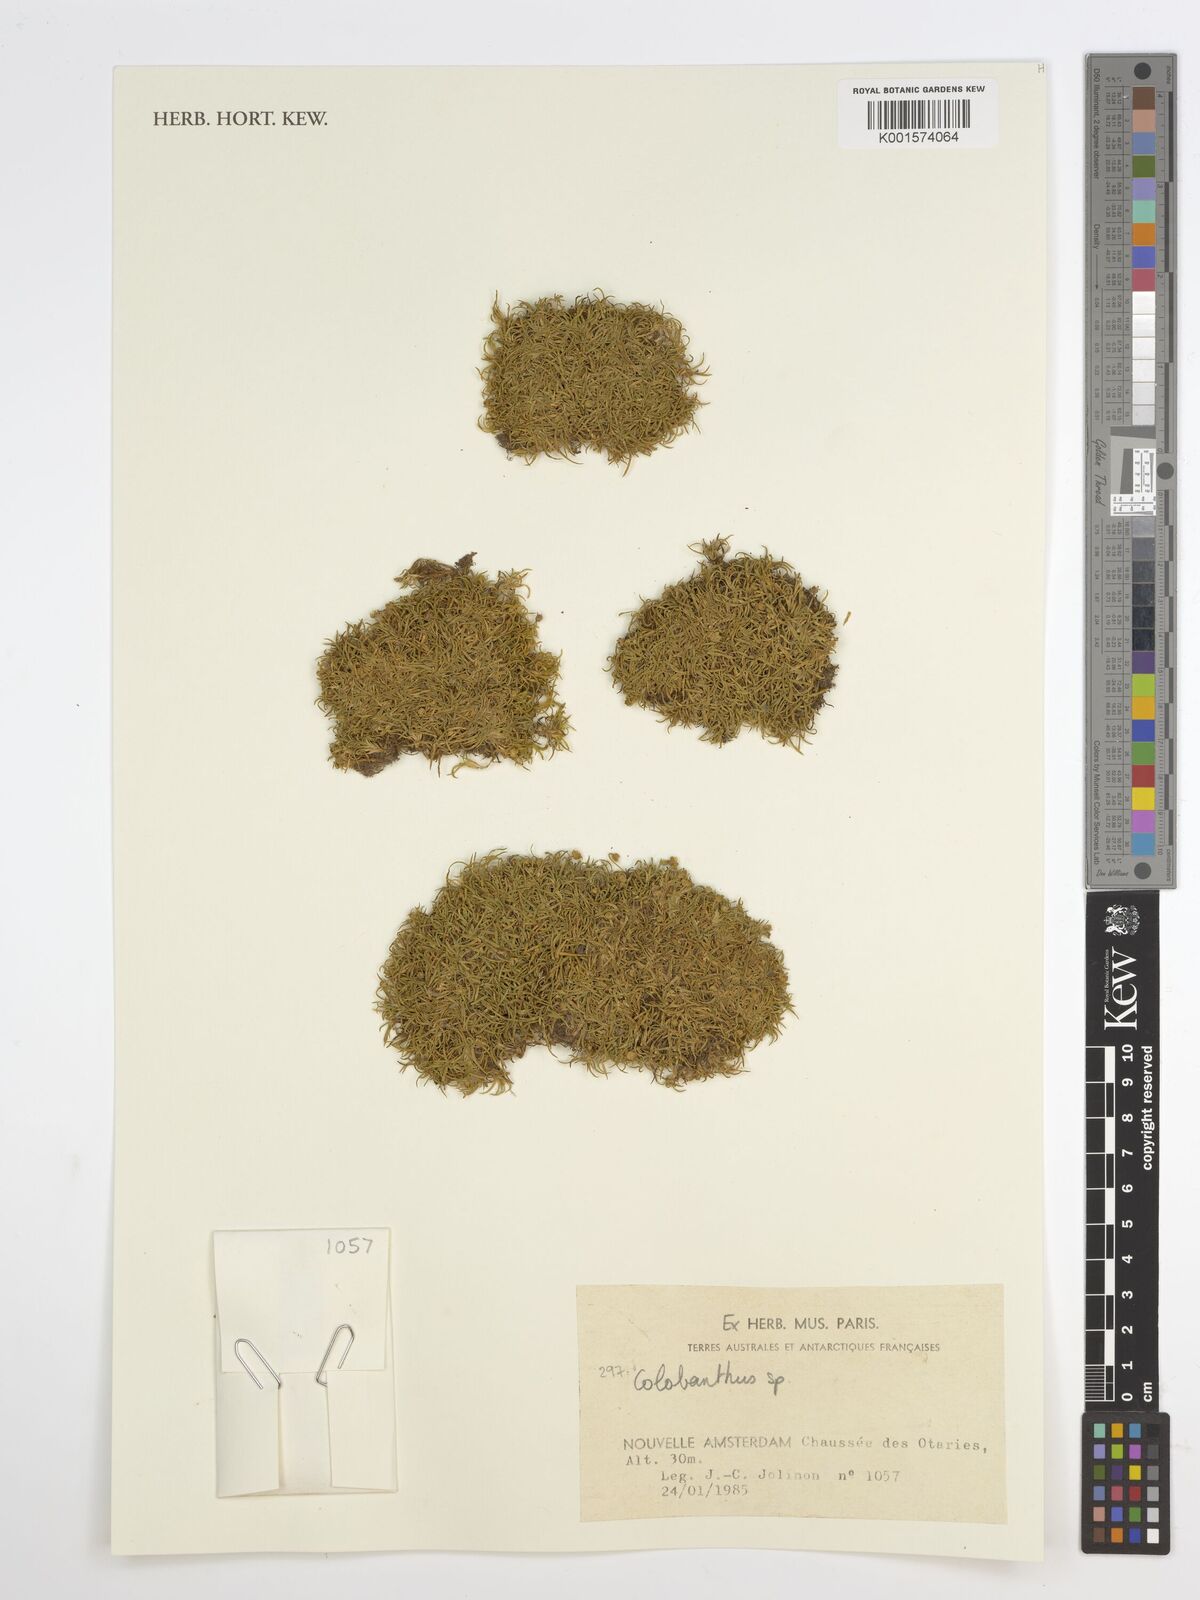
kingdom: Plantae
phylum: Tracheophyta
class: Magnoliopsida
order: Caryophyllales
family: Caryophyllaceae
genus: Colobanthus
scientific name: Colobanthus
